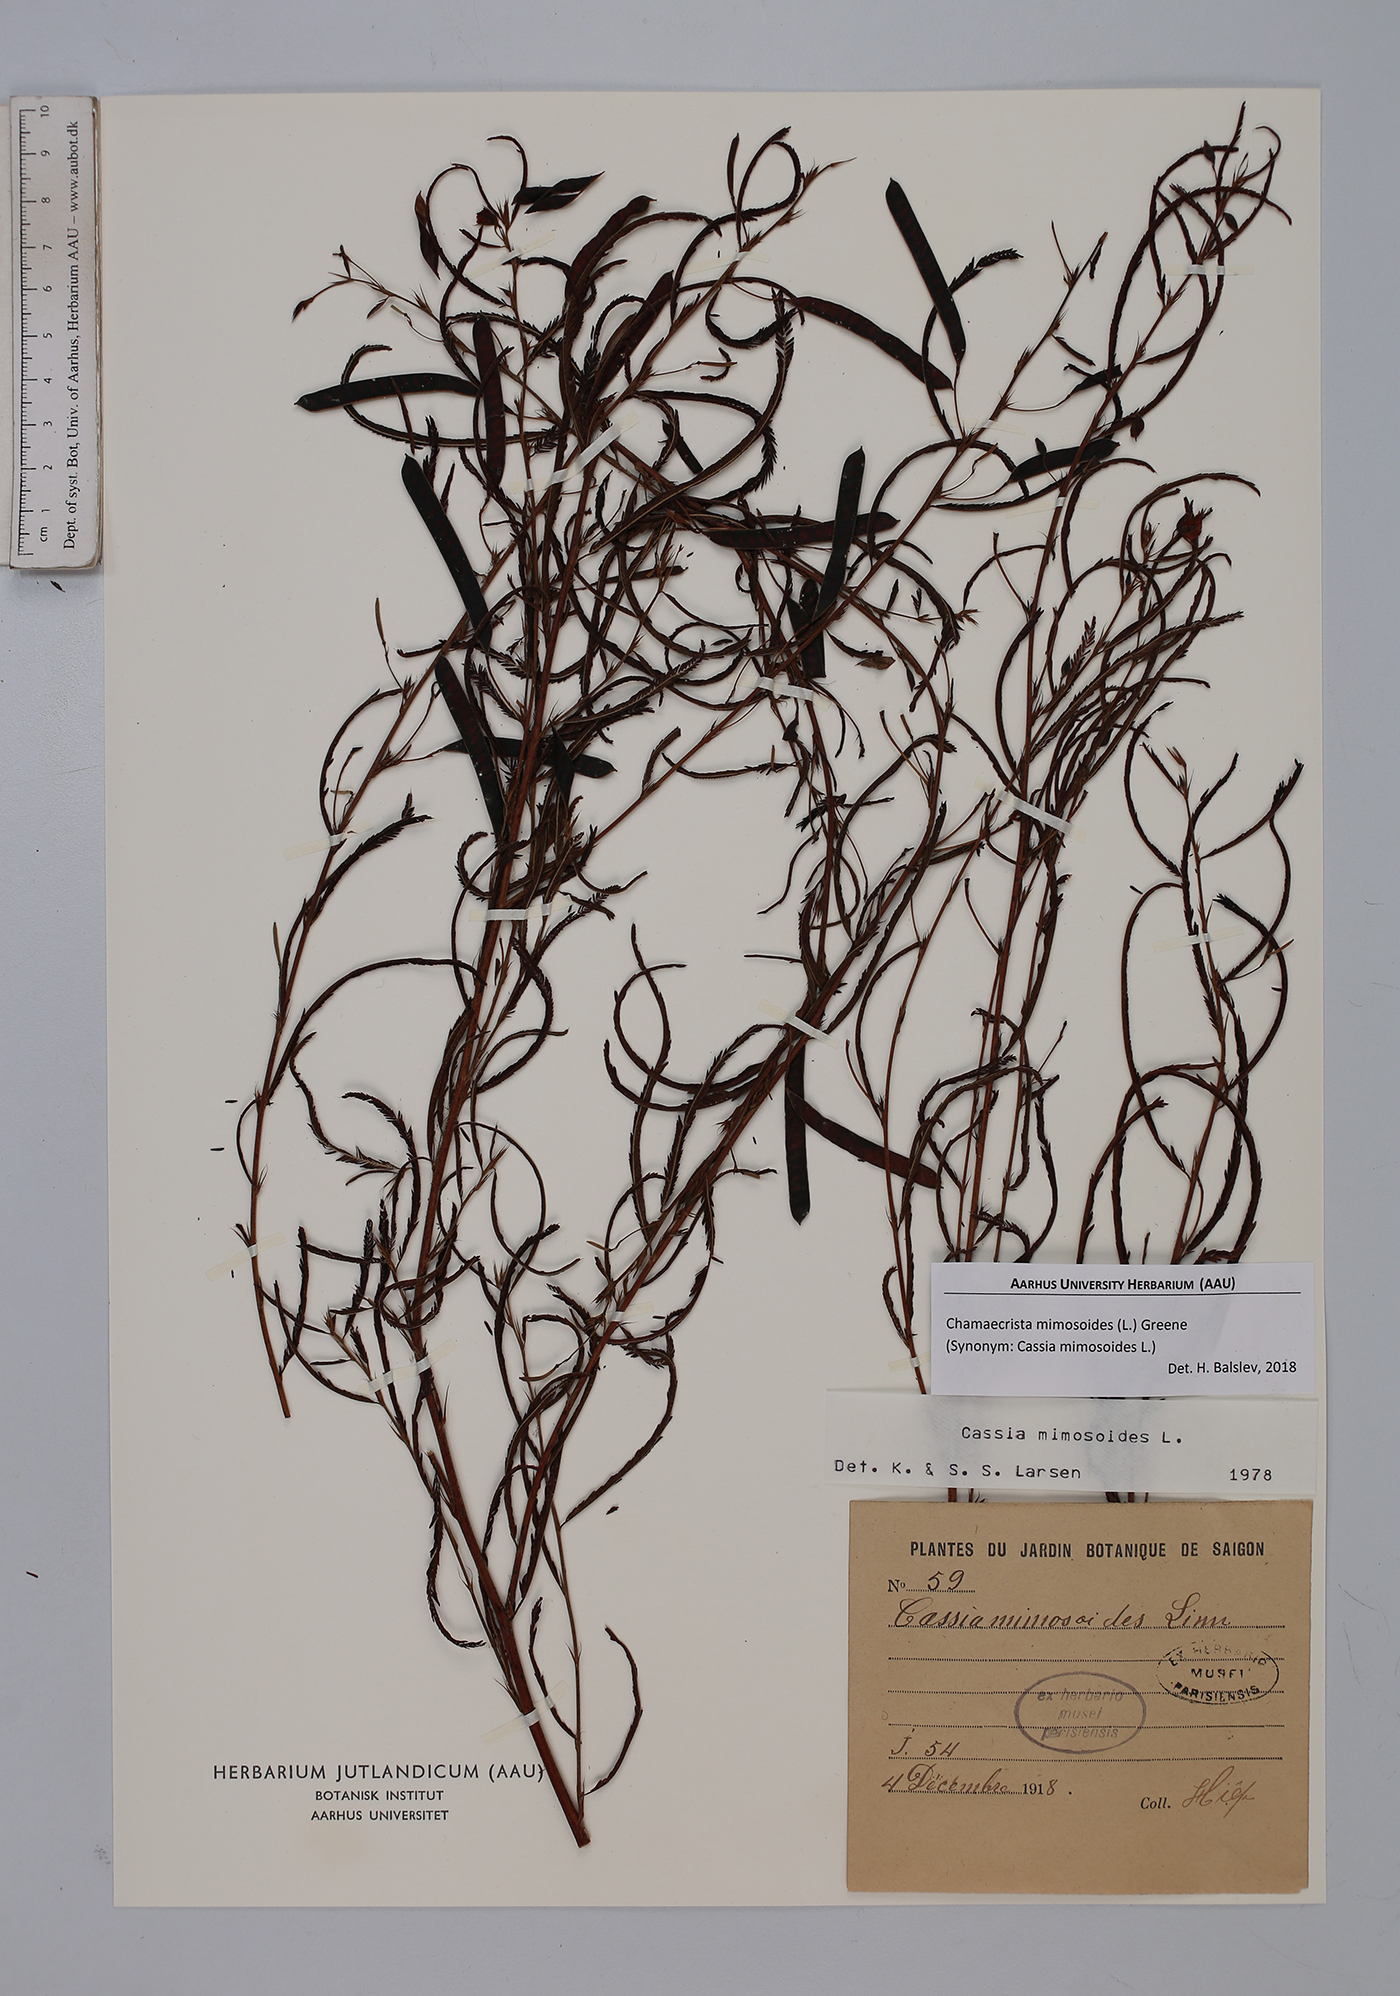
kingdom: Plantae
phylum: Tracheophyta
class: Magnoliopsida
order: Fabales
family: Fabaceae
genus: Chamaecrista
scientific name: Chamaecrista mimosoides
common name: Fish-bone cassia
